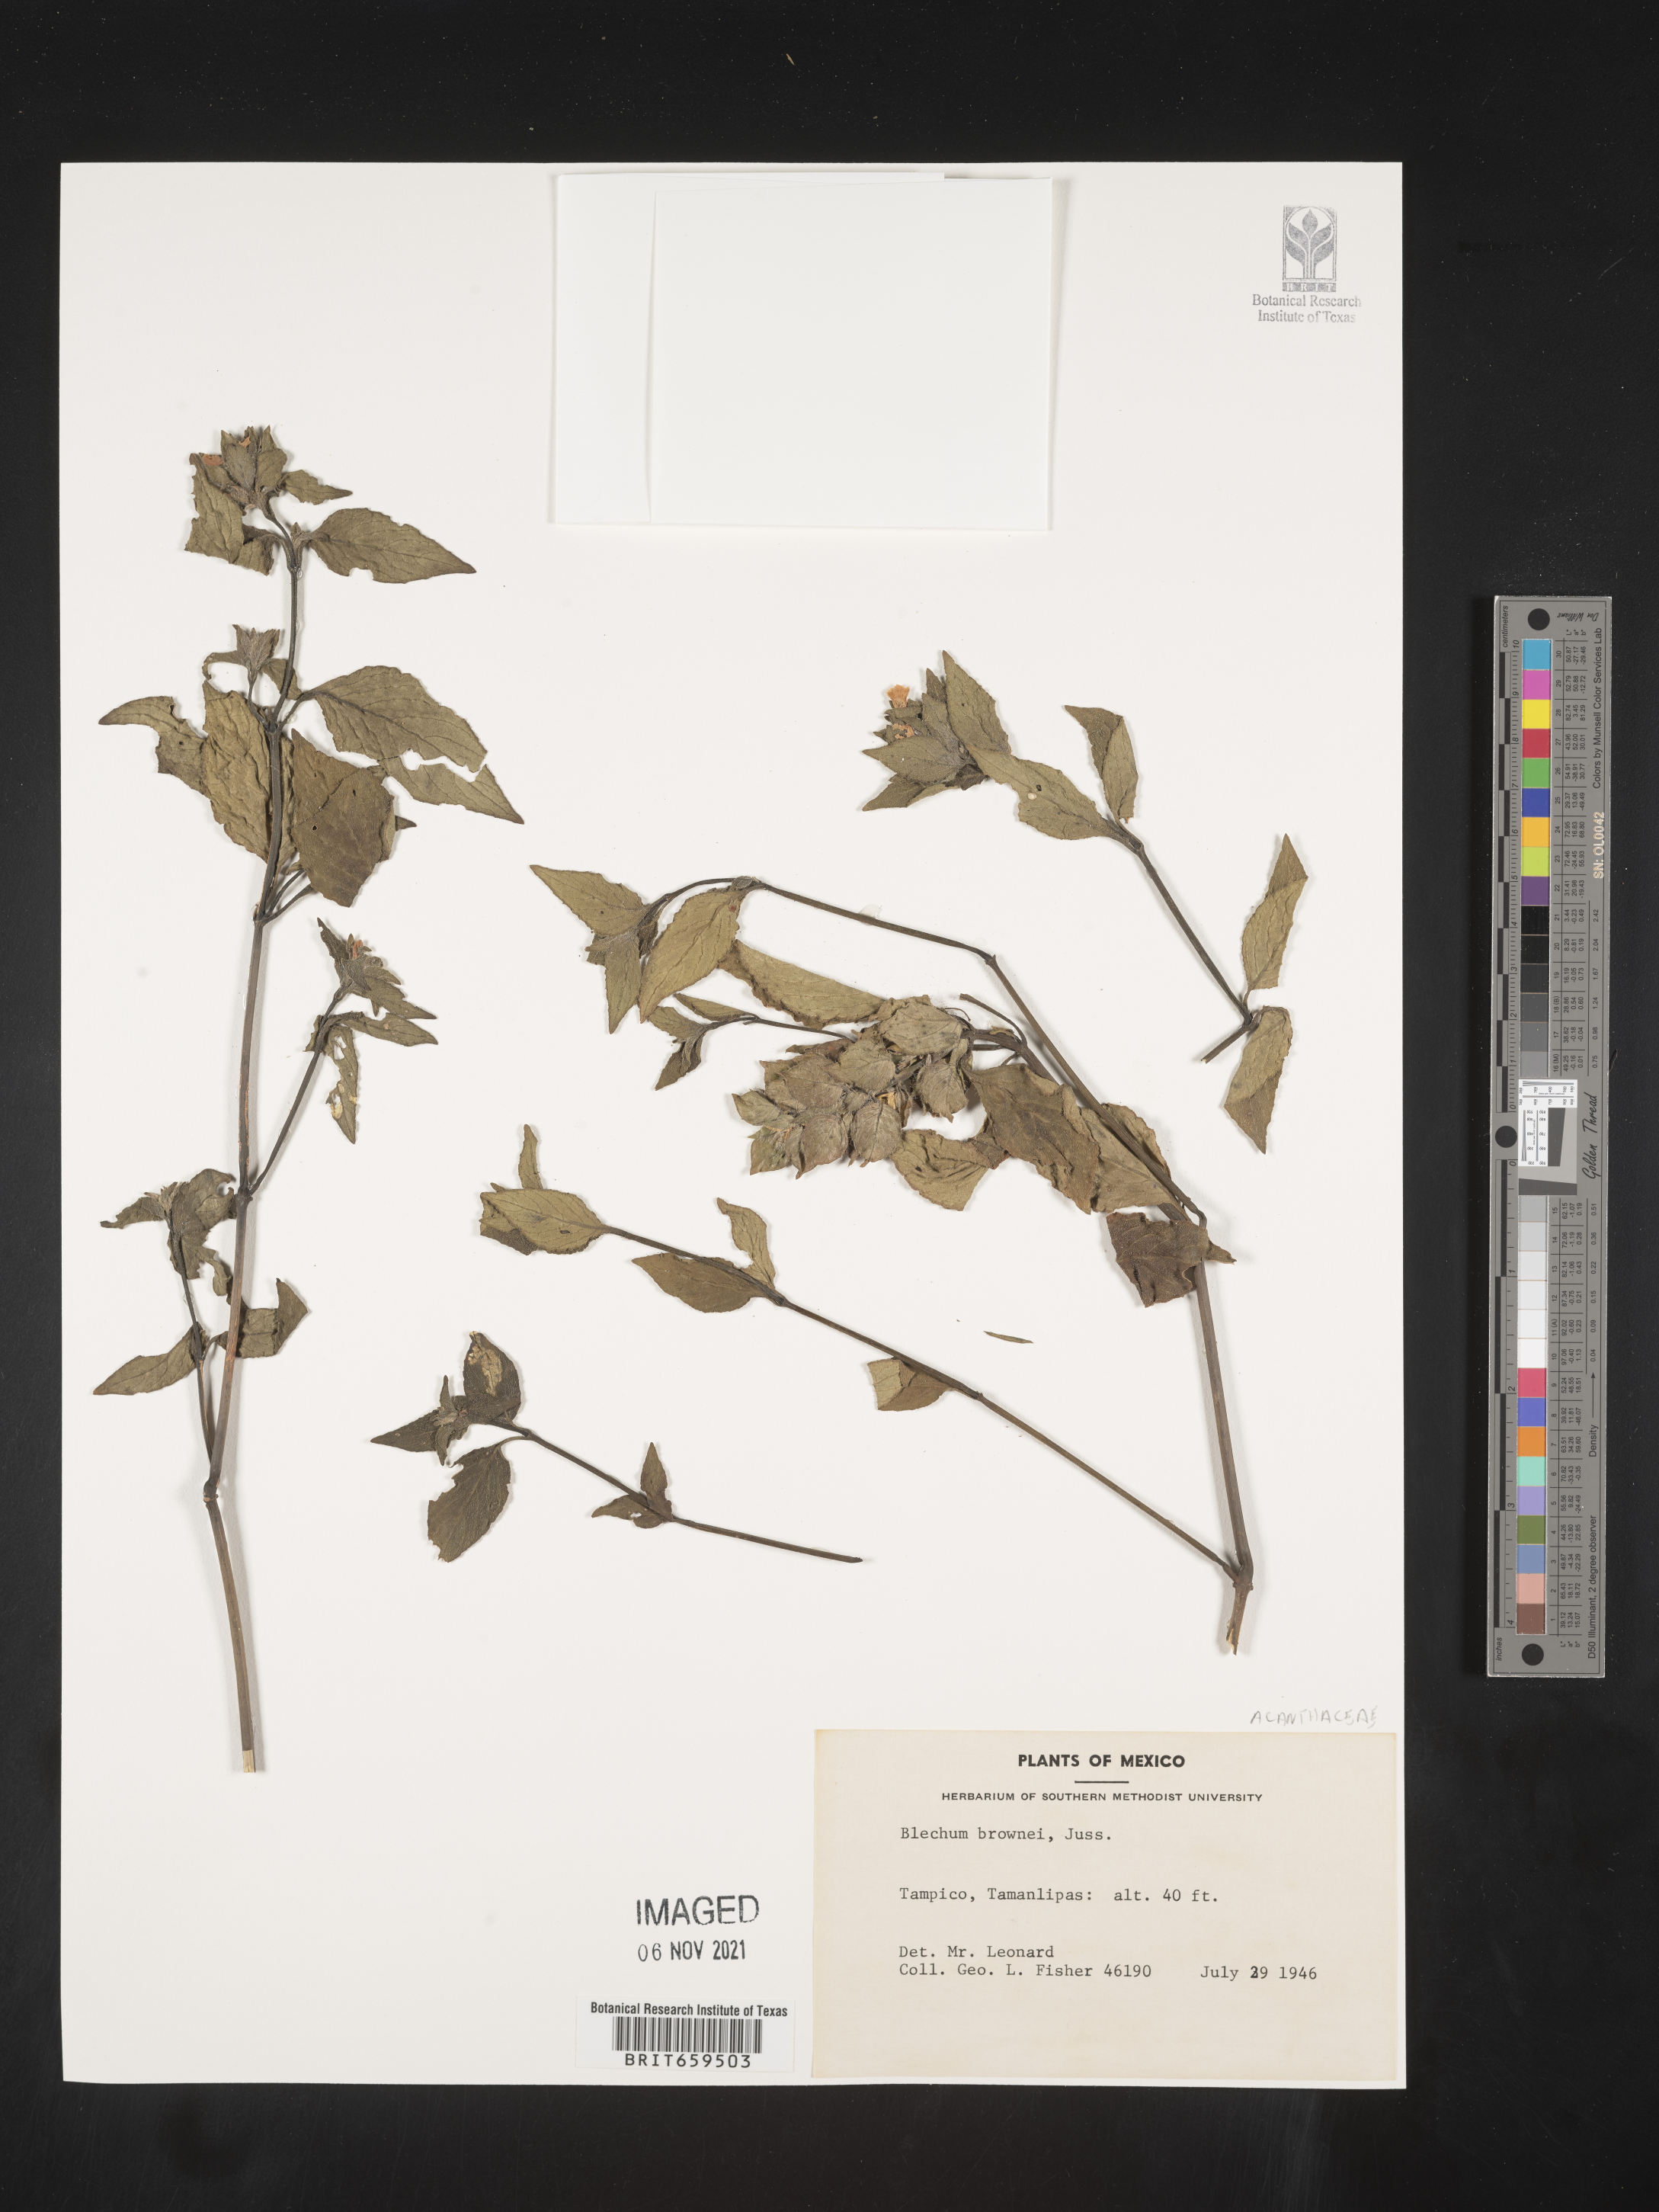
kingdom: Plantae
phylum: Tracheophyta
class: Polypodiopsida
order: Polypodiales
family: Blechnaceae
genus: Blechum
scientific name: Blechum
